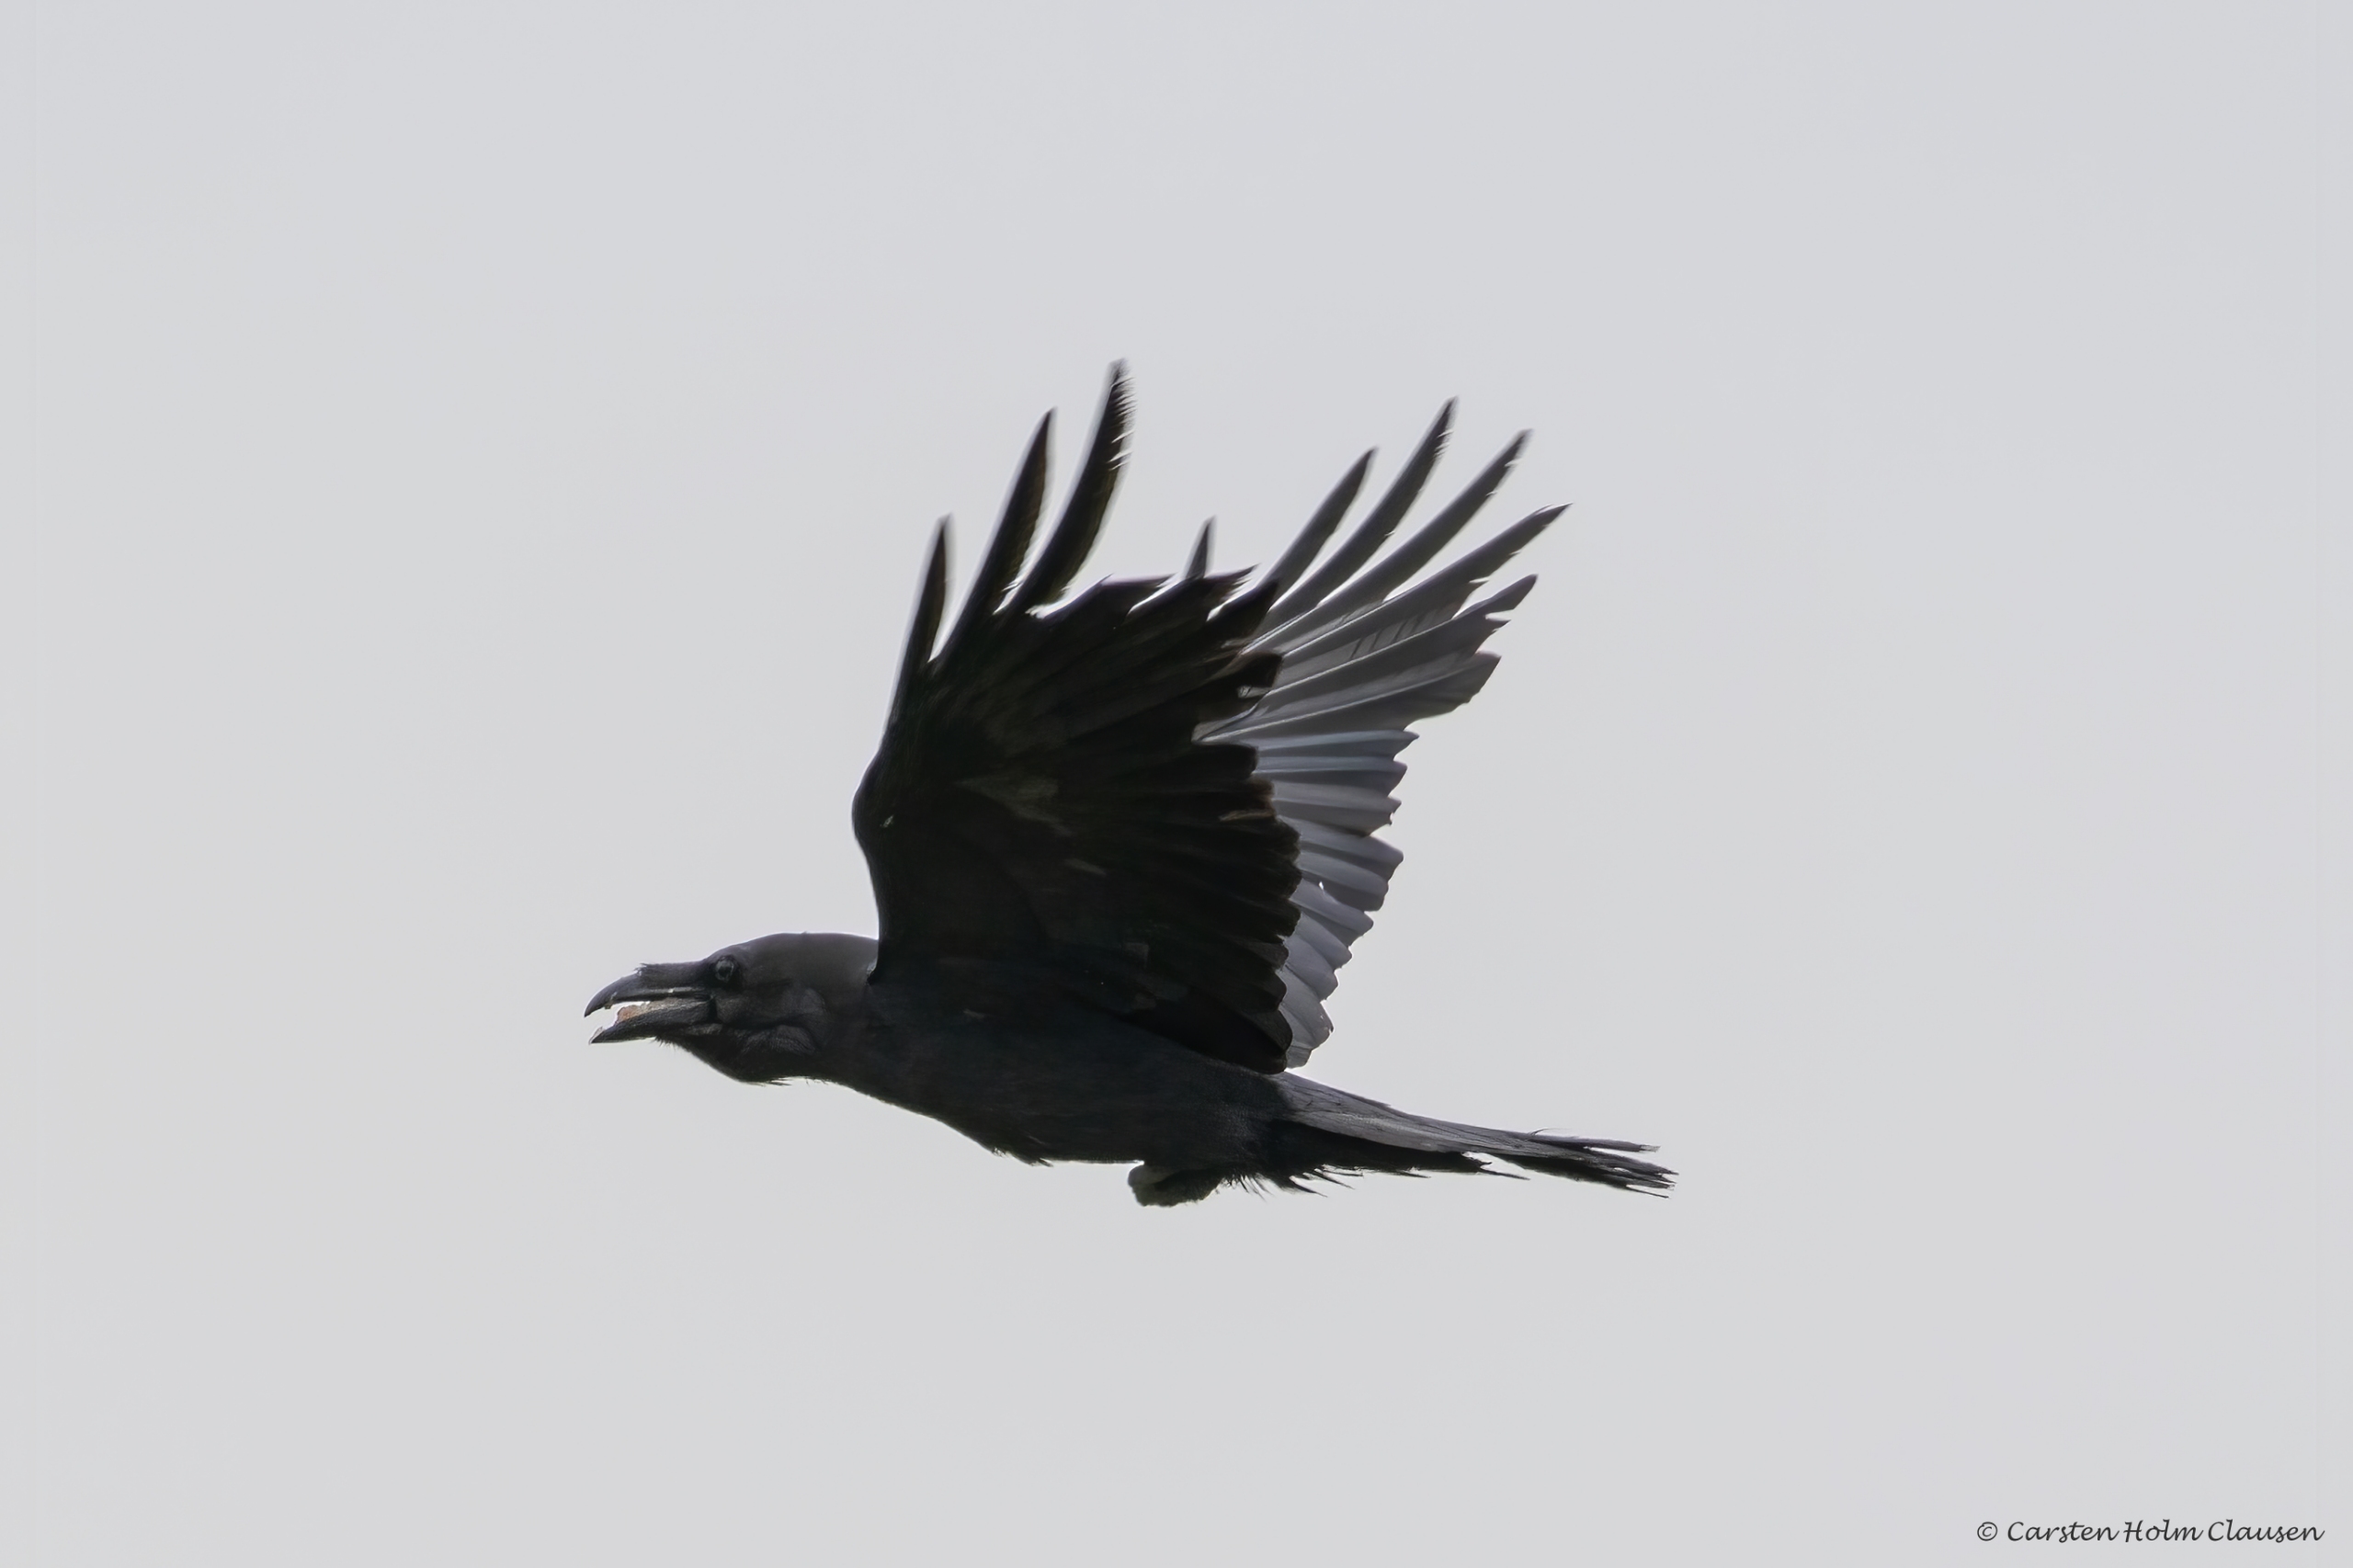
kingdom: Animalia
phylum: Chordata
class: Aves
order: Passeriformes
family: Corvidae
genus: Corvus
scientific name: Corvus corax
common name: Ravn
